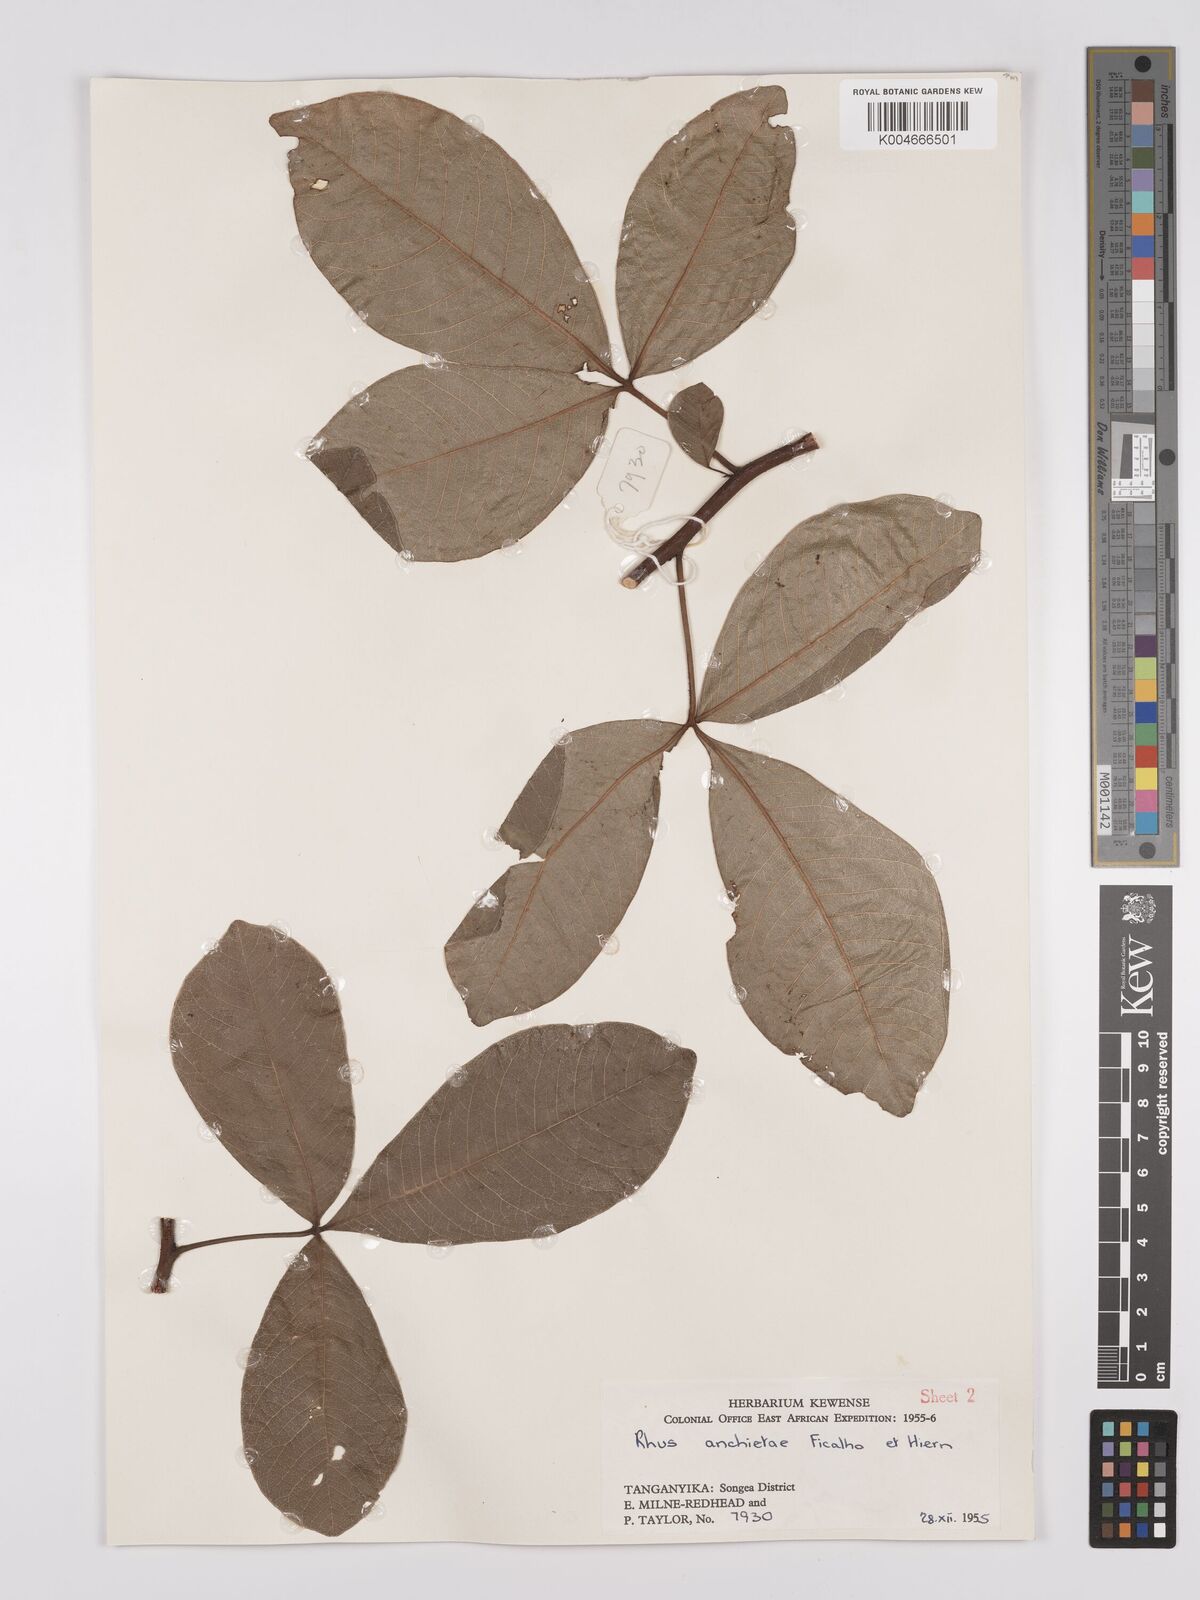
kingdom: Plantae
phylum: Tracheophyta
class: Magnoliopsida
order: Sapindales
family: Anacardiaceae
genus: Searsia
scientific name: Searsia anchietae
